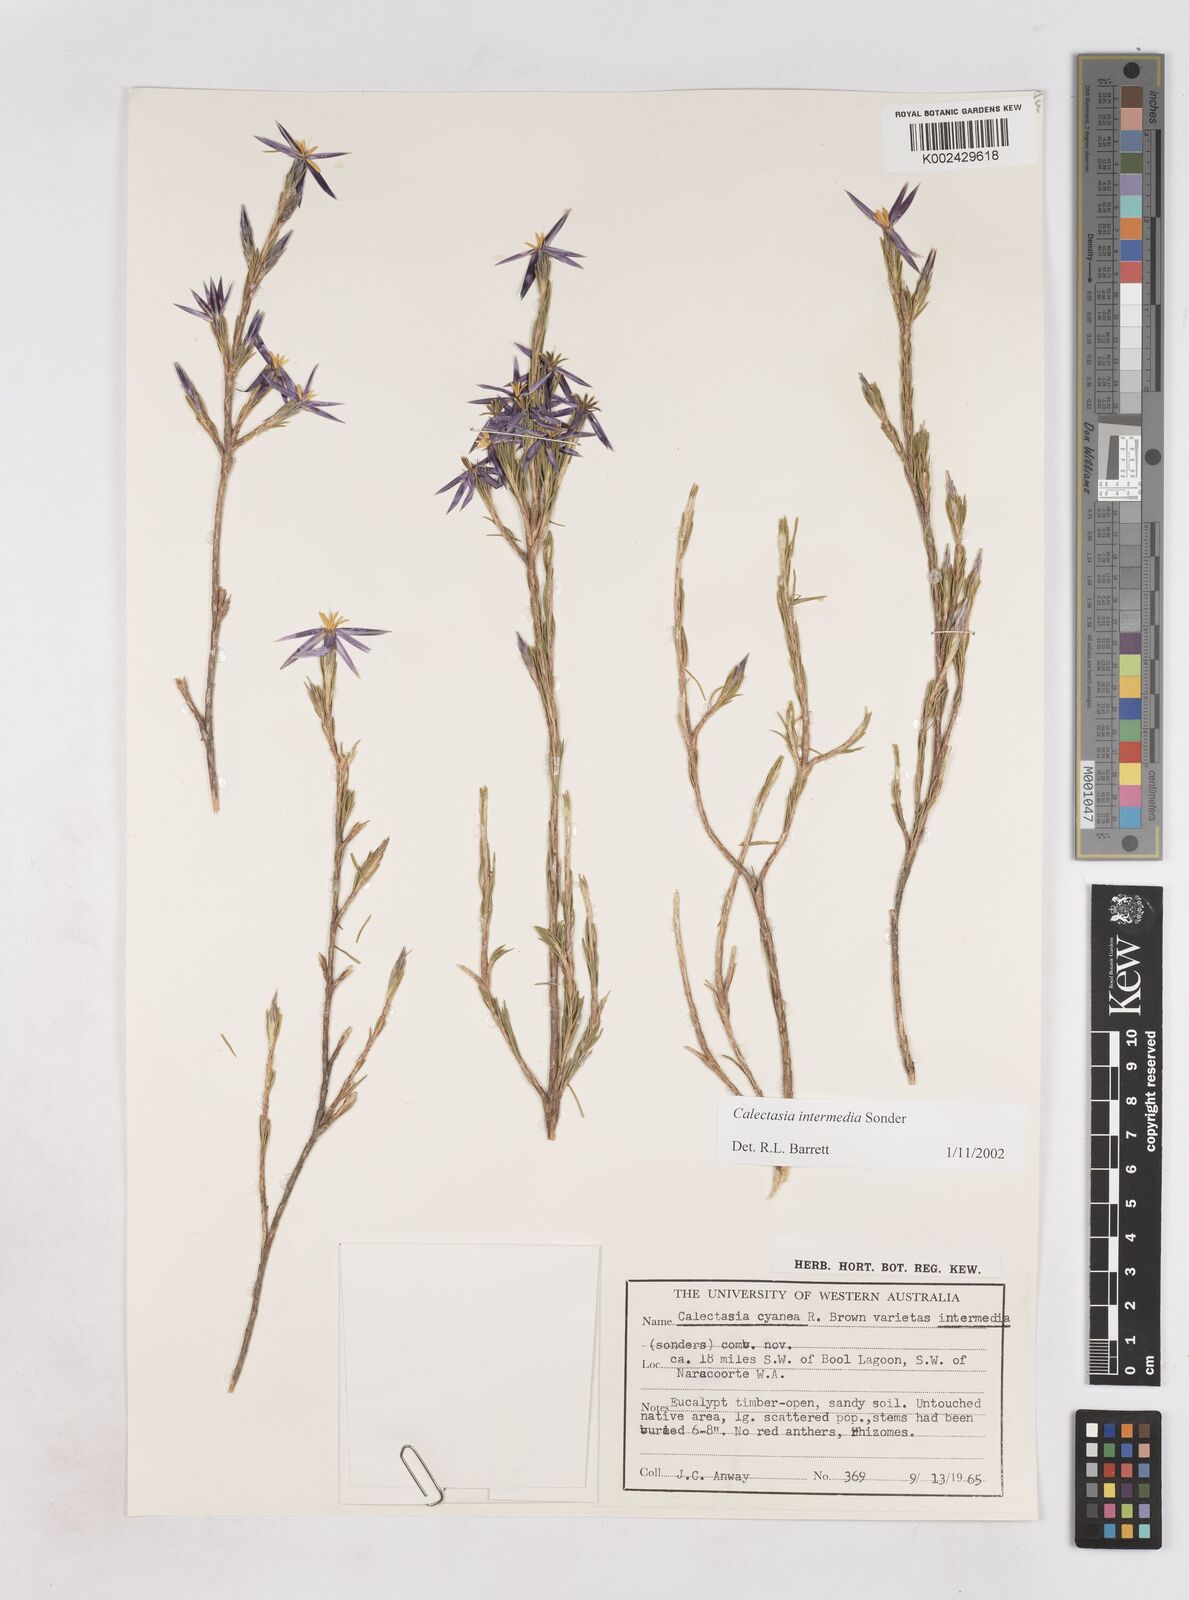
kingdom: Plantae
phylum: Tracheophyta
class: Liliopsida
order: Arecales
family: Dasypogonaceae
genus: Calectasia
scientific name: Calectasia intermedia
